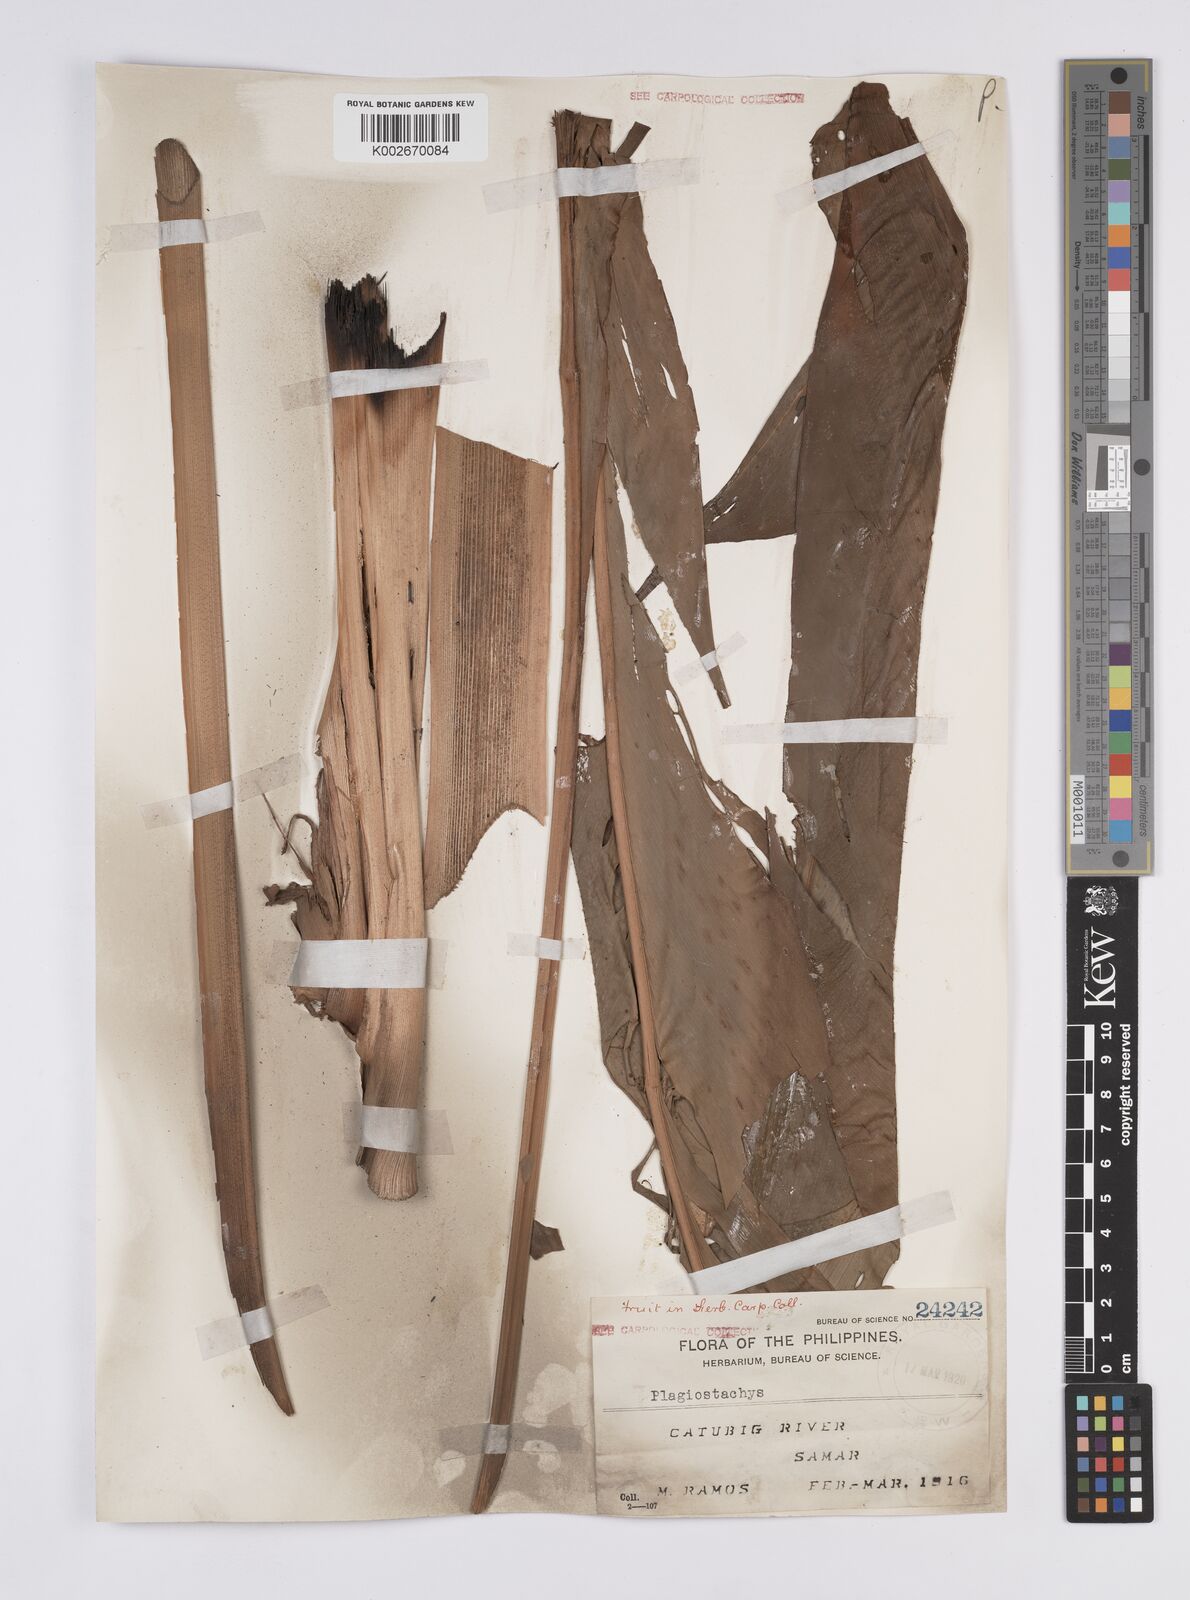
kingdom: Plantae
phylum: Tracheophyta
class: Liliopsida
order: Zingiberales
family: Zingiberaceae
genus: Plagiostachys
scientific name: Plagiostachys
